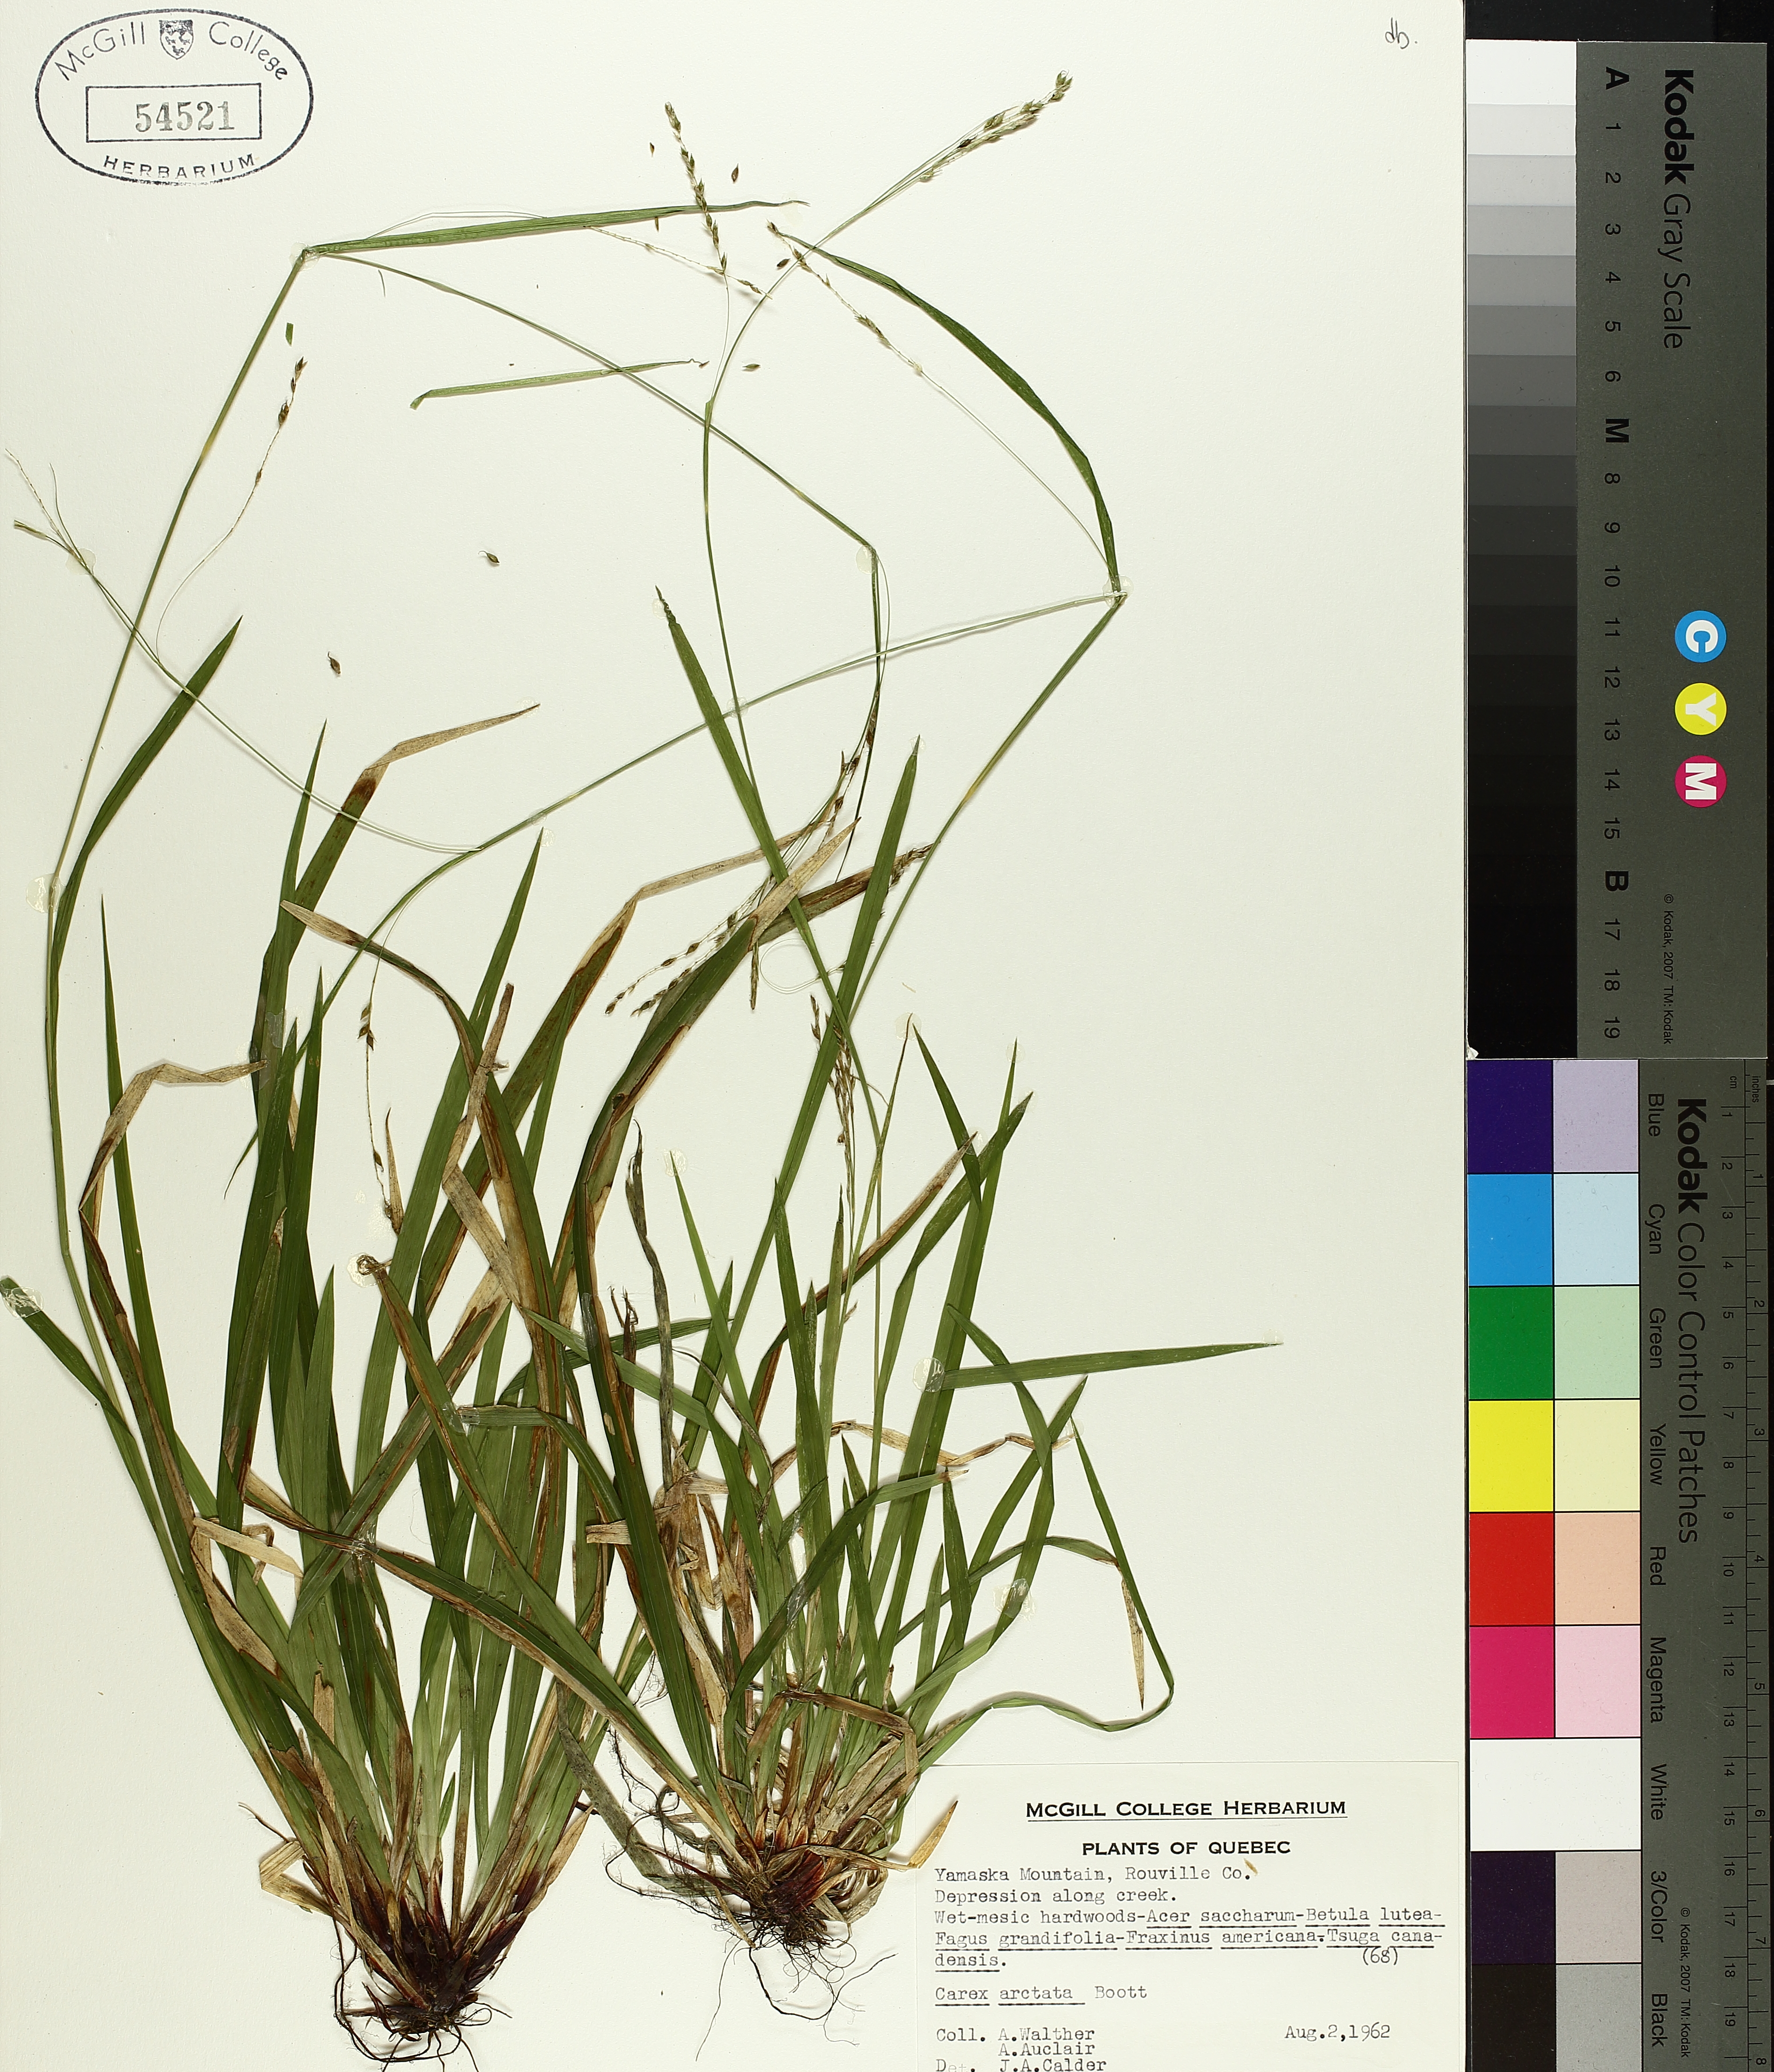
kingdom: Plantae
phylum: Tracheophyta
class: Liliopsida
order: Poales
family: Cyperaceae
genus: Carex
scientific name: Carex arctata
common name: Black sedge
